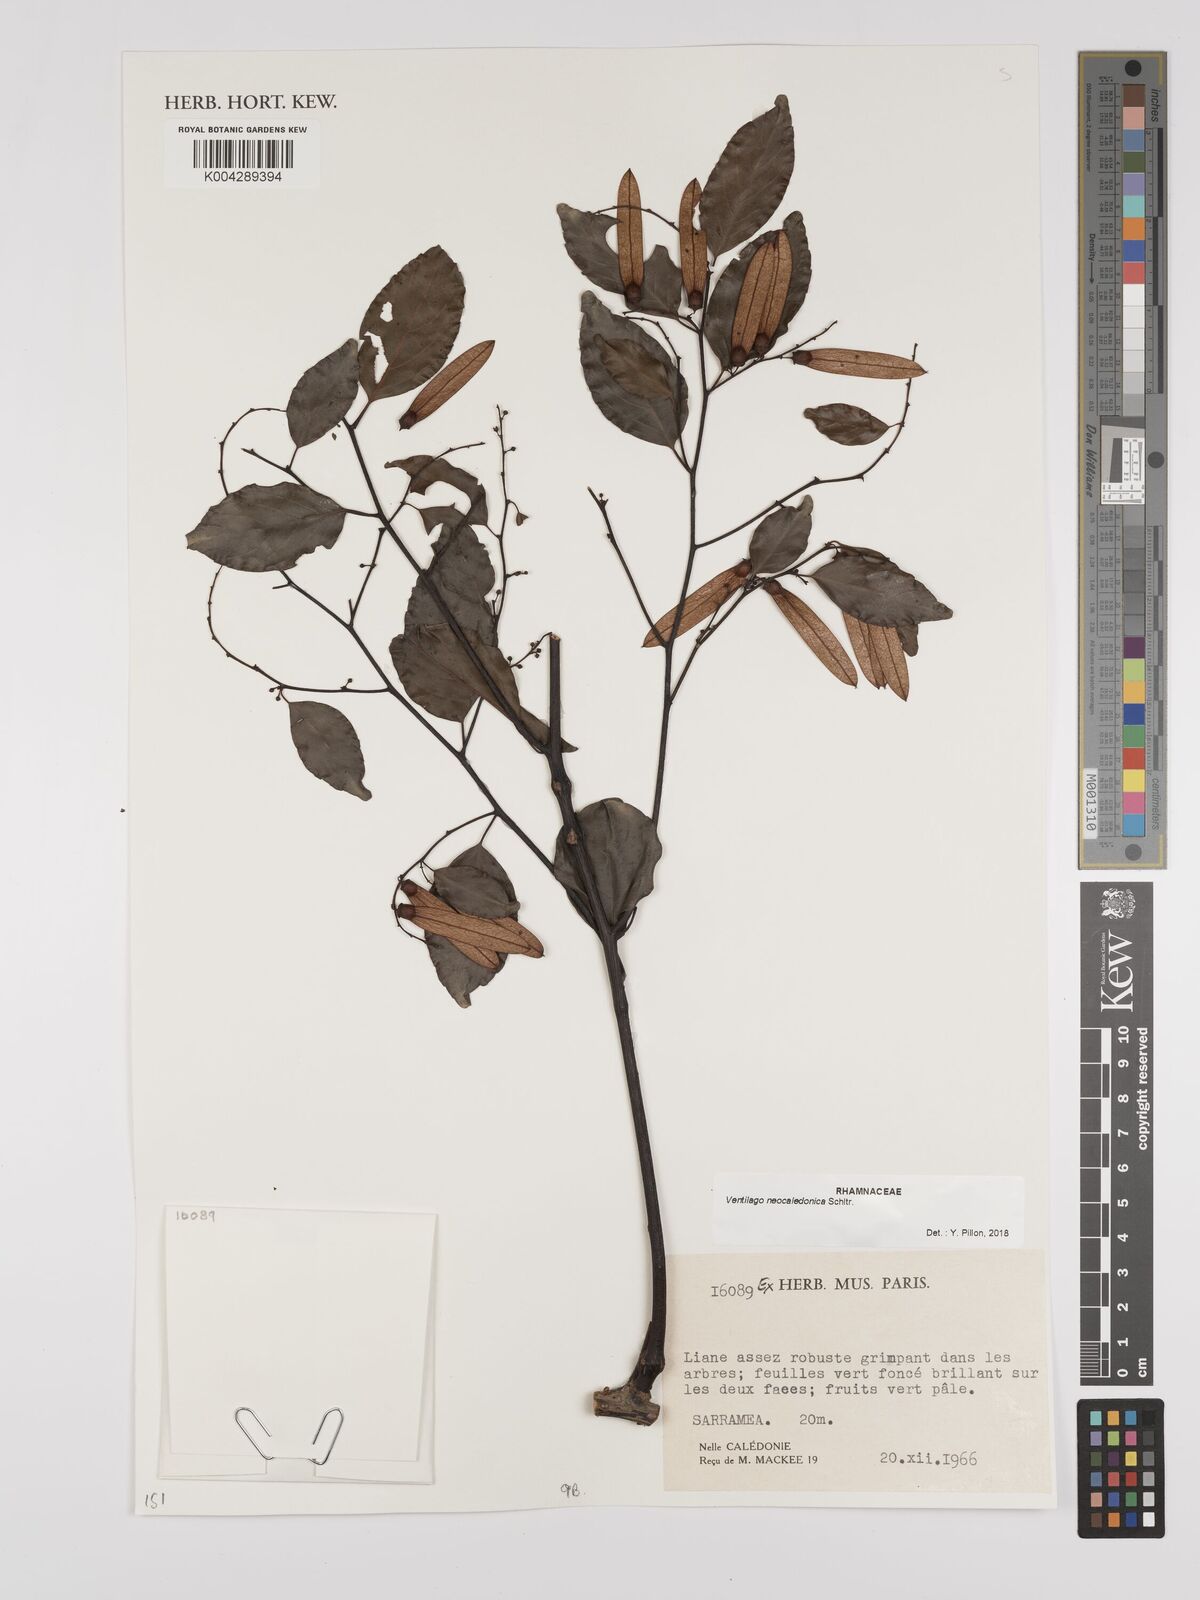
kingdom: Plantae
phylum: Tracheophyta
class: Magnoliopsida
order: Rosales
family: Rhamnaceae
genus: Ventilago
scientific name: Ventilago neocaledonica
